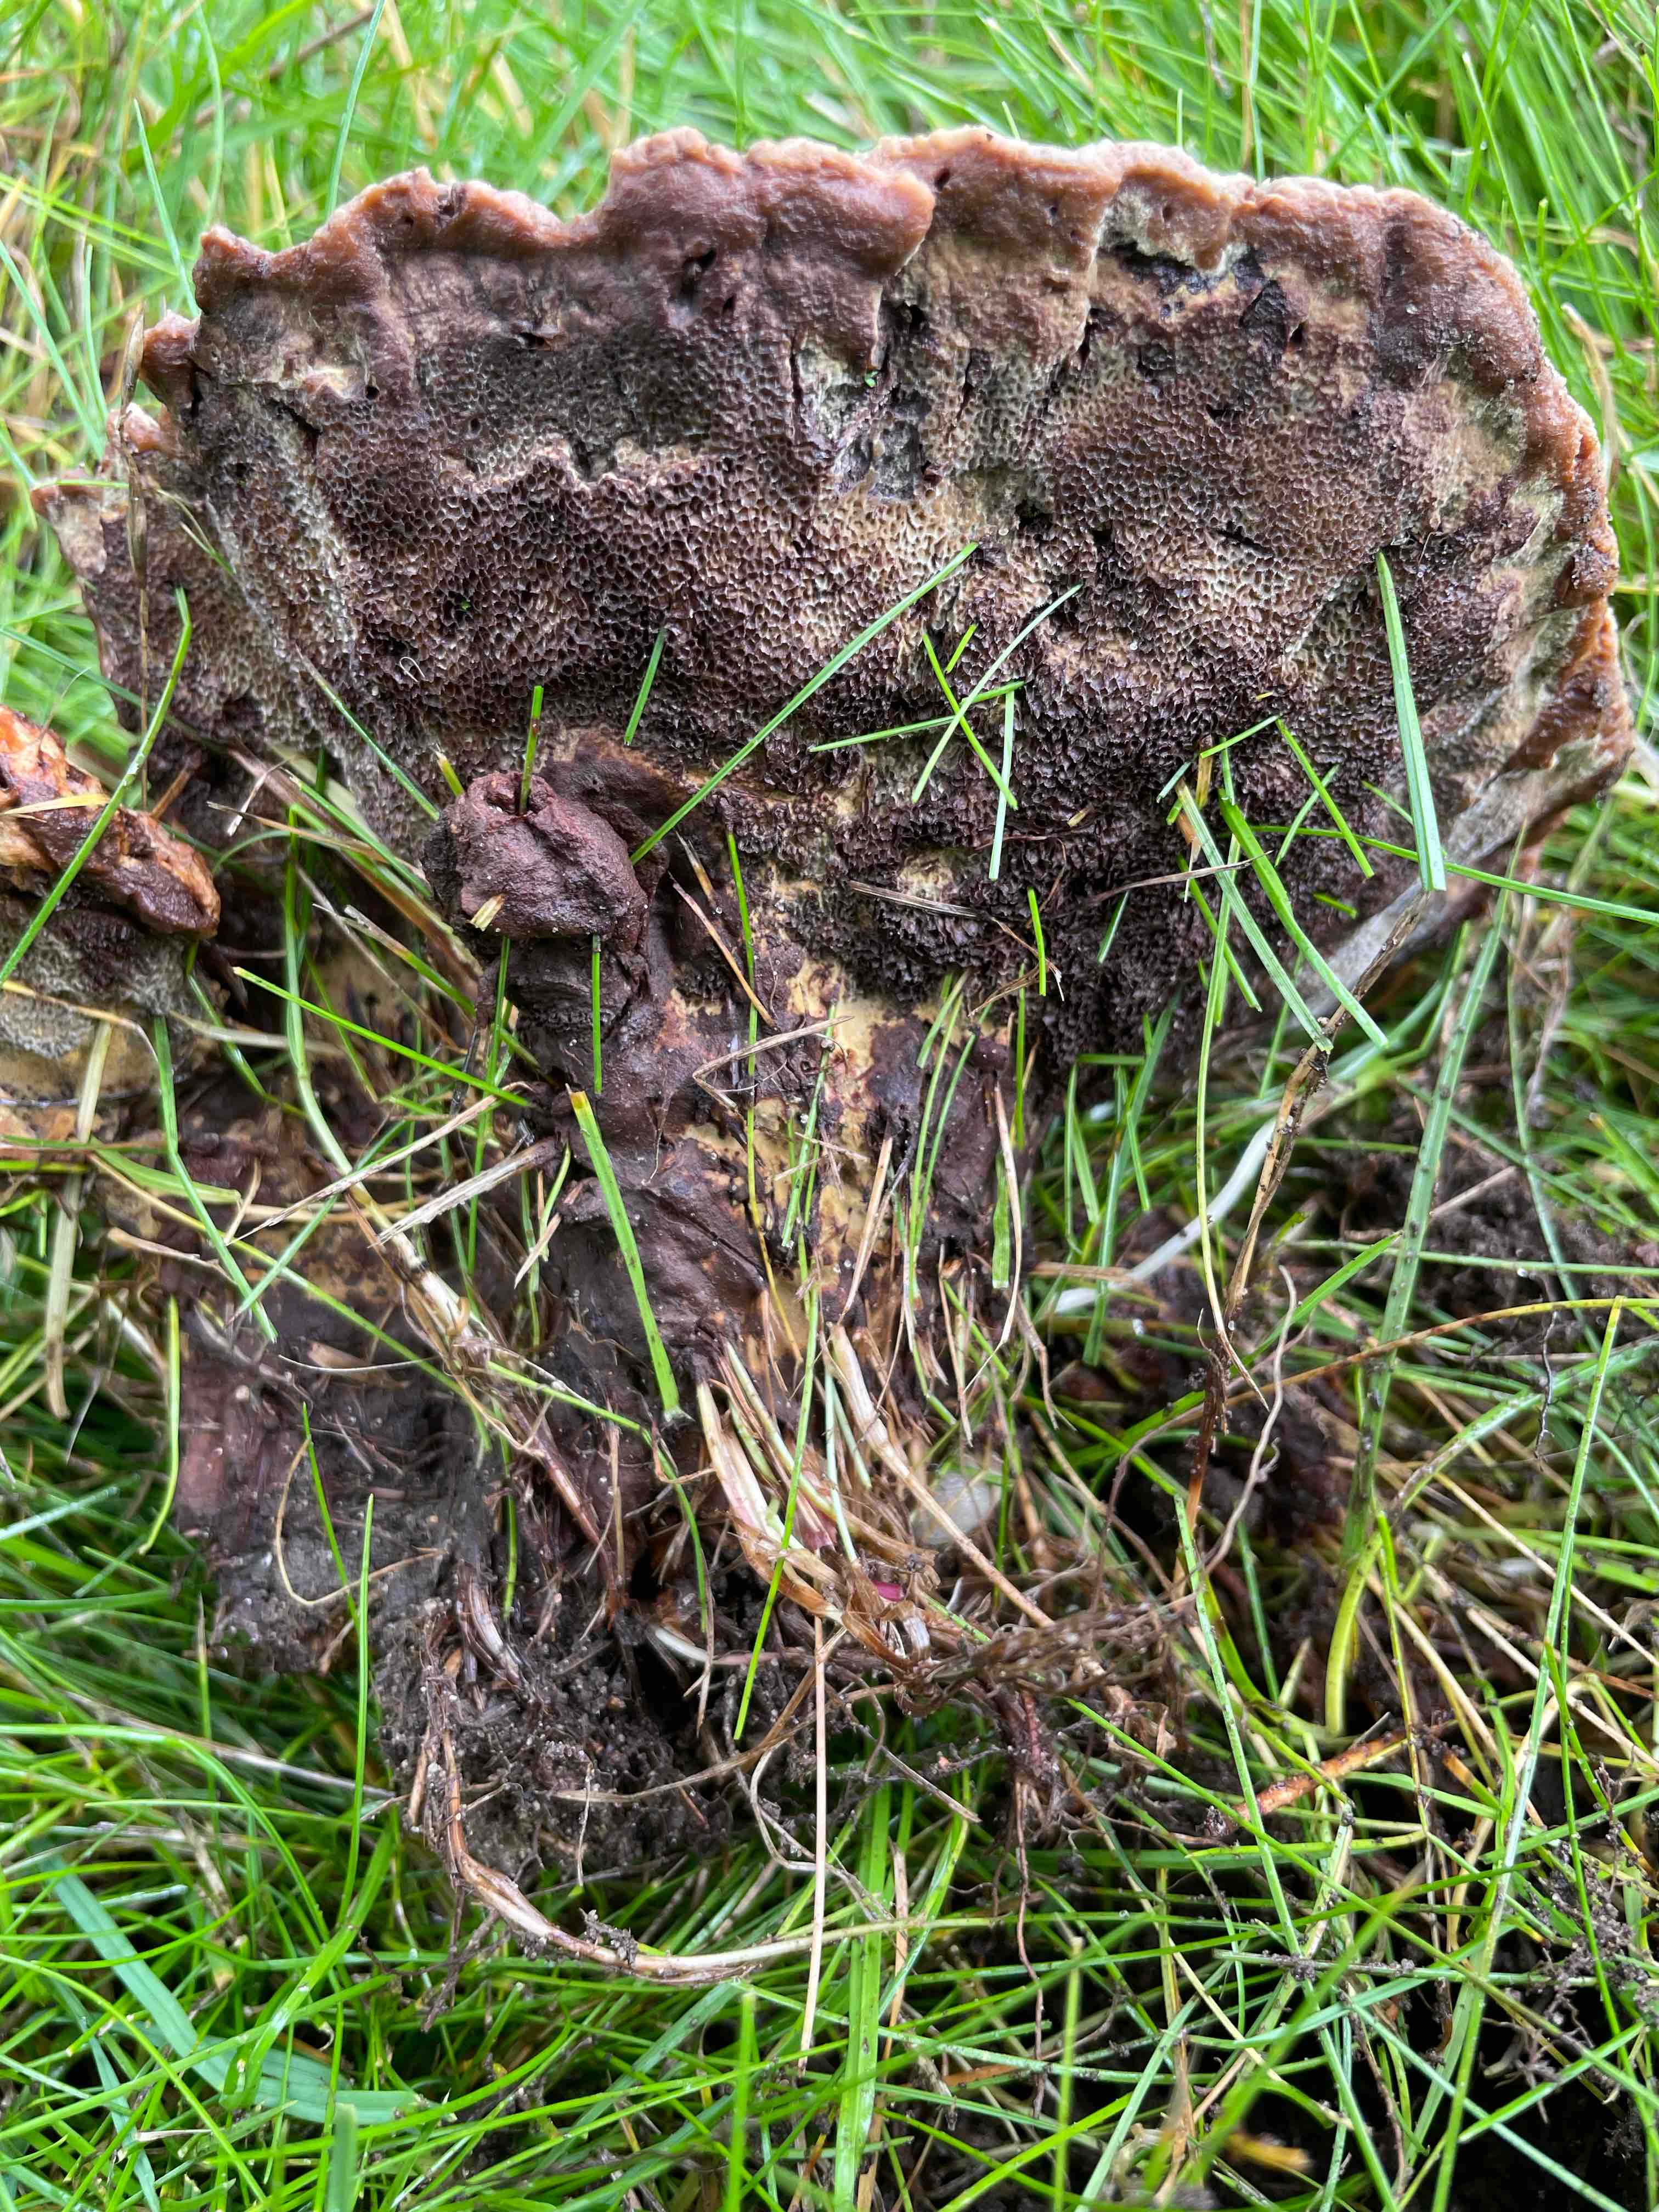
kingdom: Fungi
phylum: Basidiomycota
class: Agaricomycetes
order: Polyporales
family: Laetiporaceae
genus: Phaeolus
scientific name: Phaeolus schweinitzii
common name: brunporesvamp
